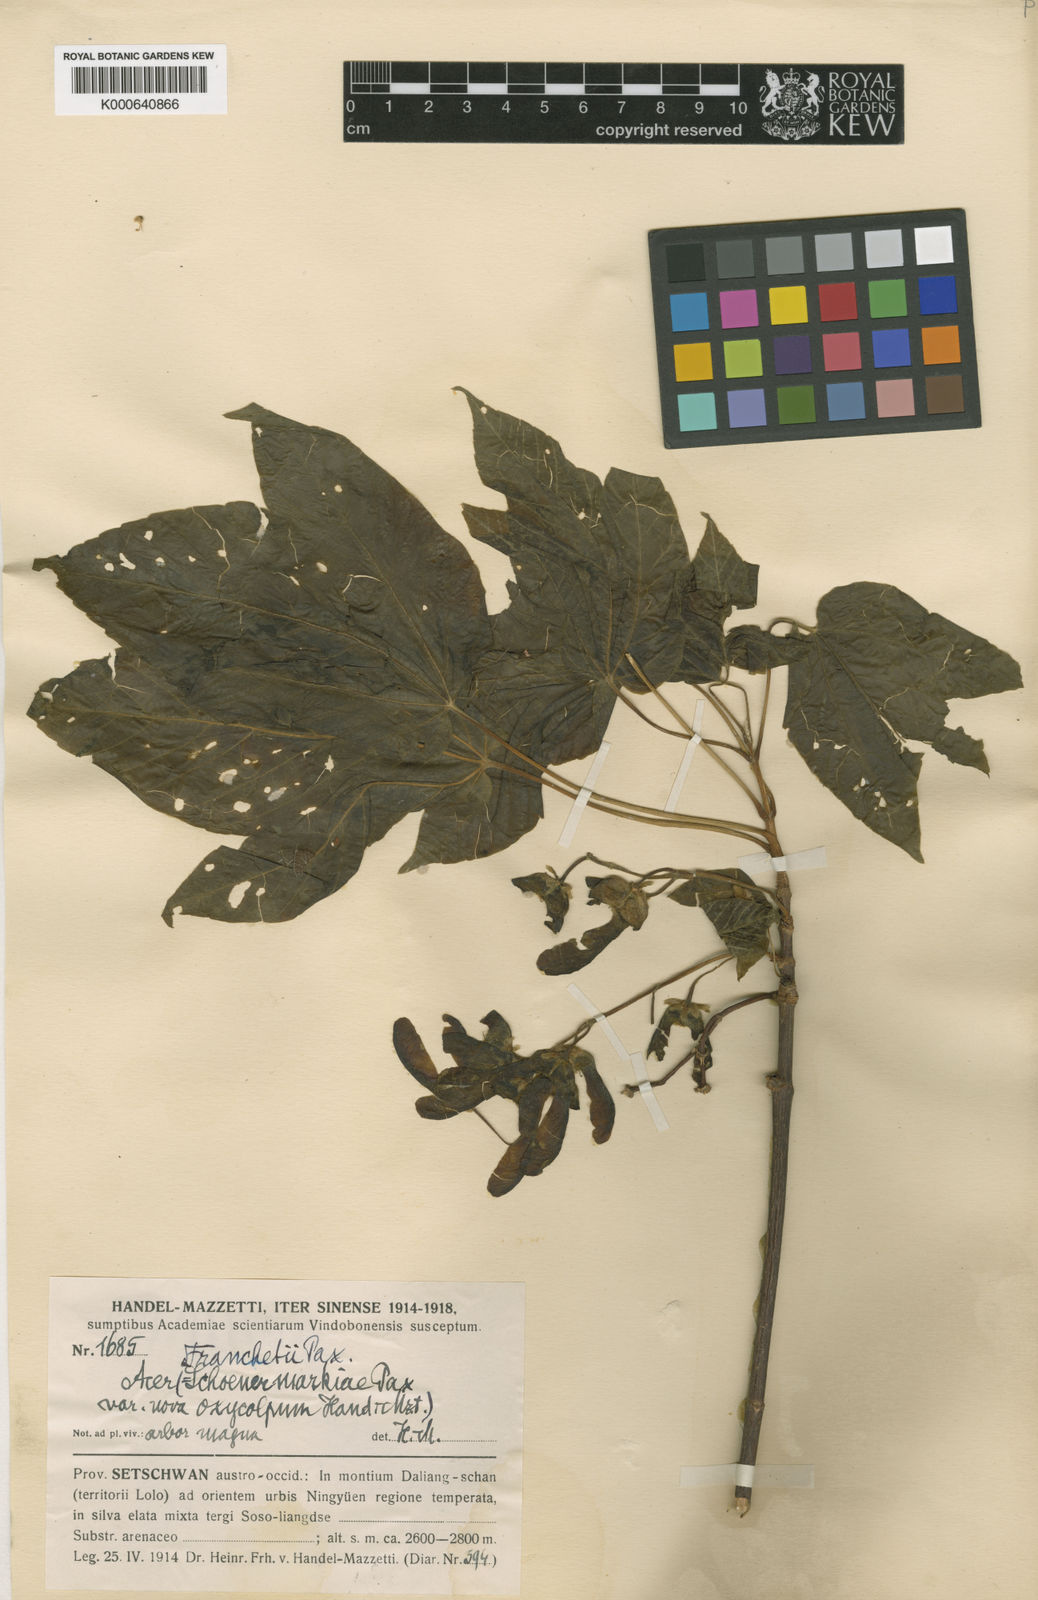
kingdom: Plantae
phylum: Tracheophyta
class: Magnoliopsida
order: Sapindales
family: Sapindaceae
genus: Acer
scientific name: Acer sterculiaceum
